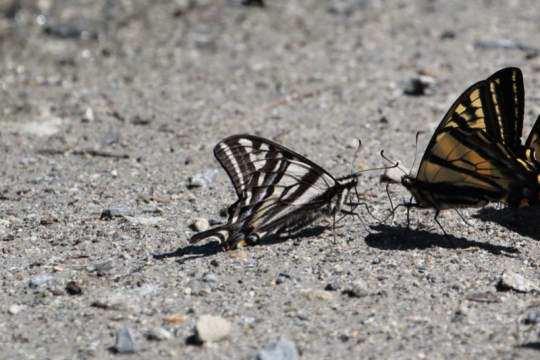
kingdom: Animalia
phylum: Arthropoda
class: Insecta
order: Lepidoptera
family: Papilionidae
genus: Pterourus
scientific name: Pterourus eurymedon
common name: Pale Swallowtail
